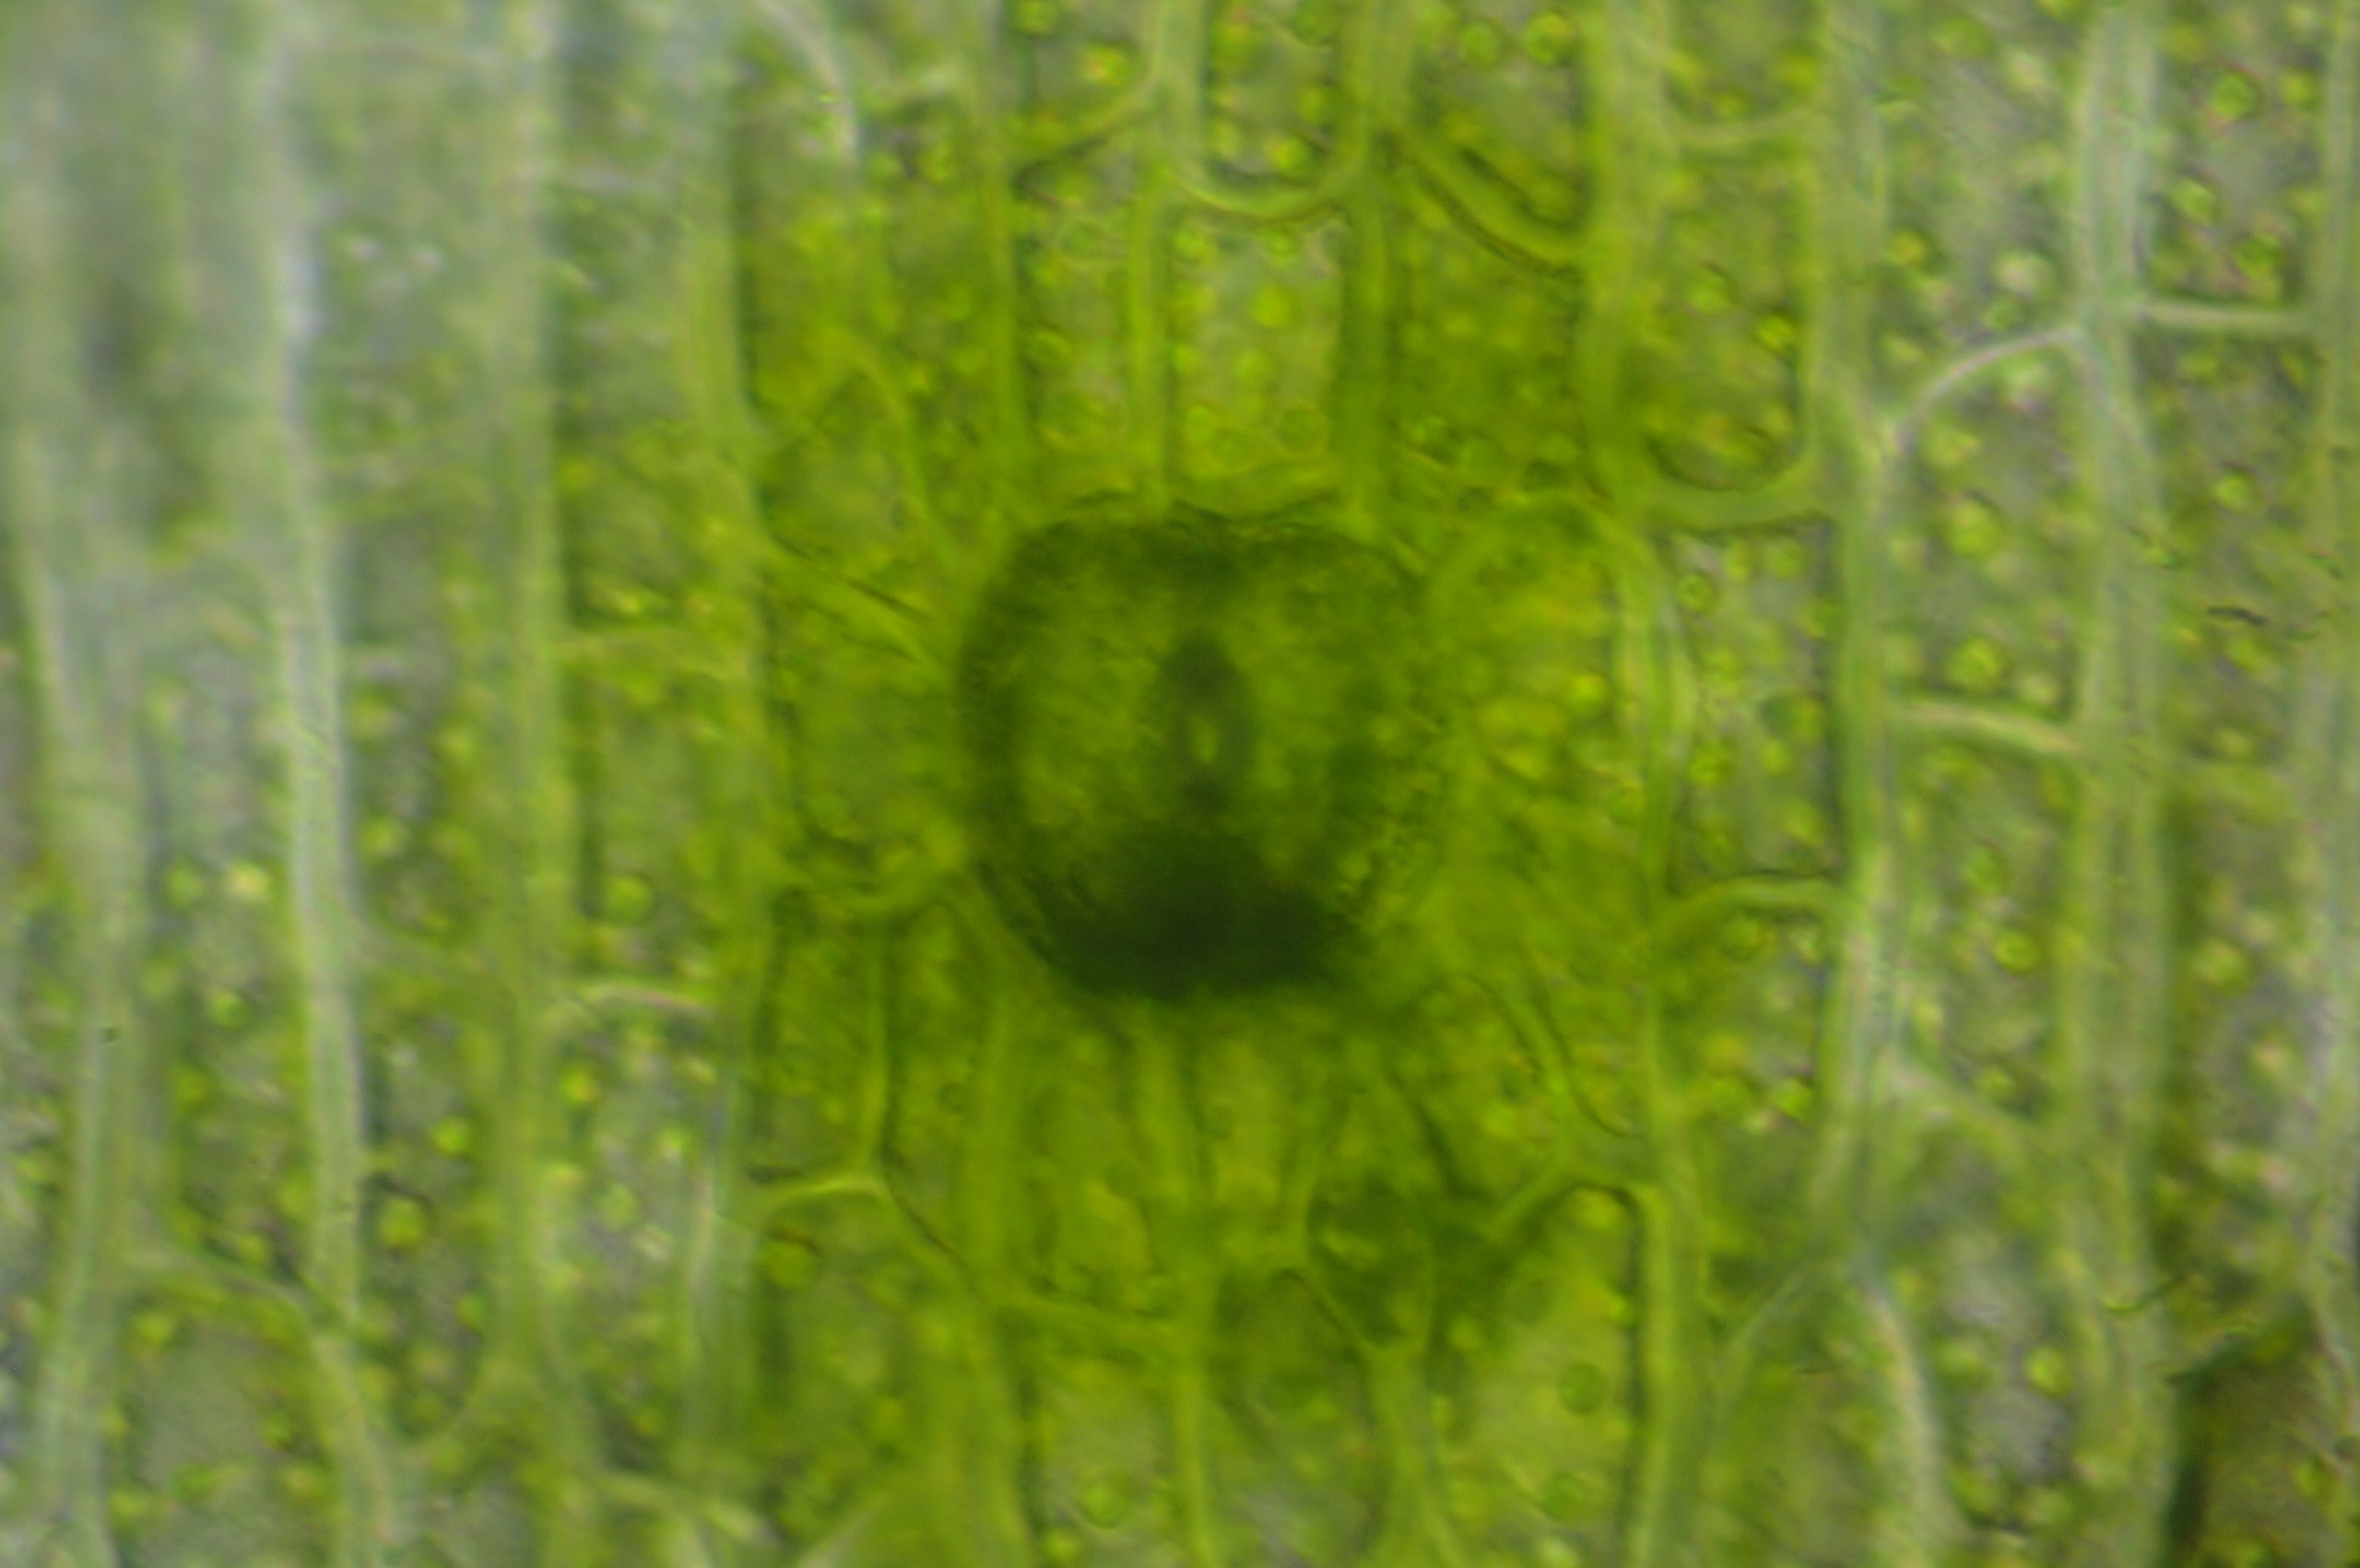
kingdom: Plantae
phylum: Bryophyta
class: Bryopsida
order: Orthotrichales
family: Orthotrichaceae
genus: Lewinskya
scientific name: Lewinskya speciosa
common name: Kortstribet furehætte
